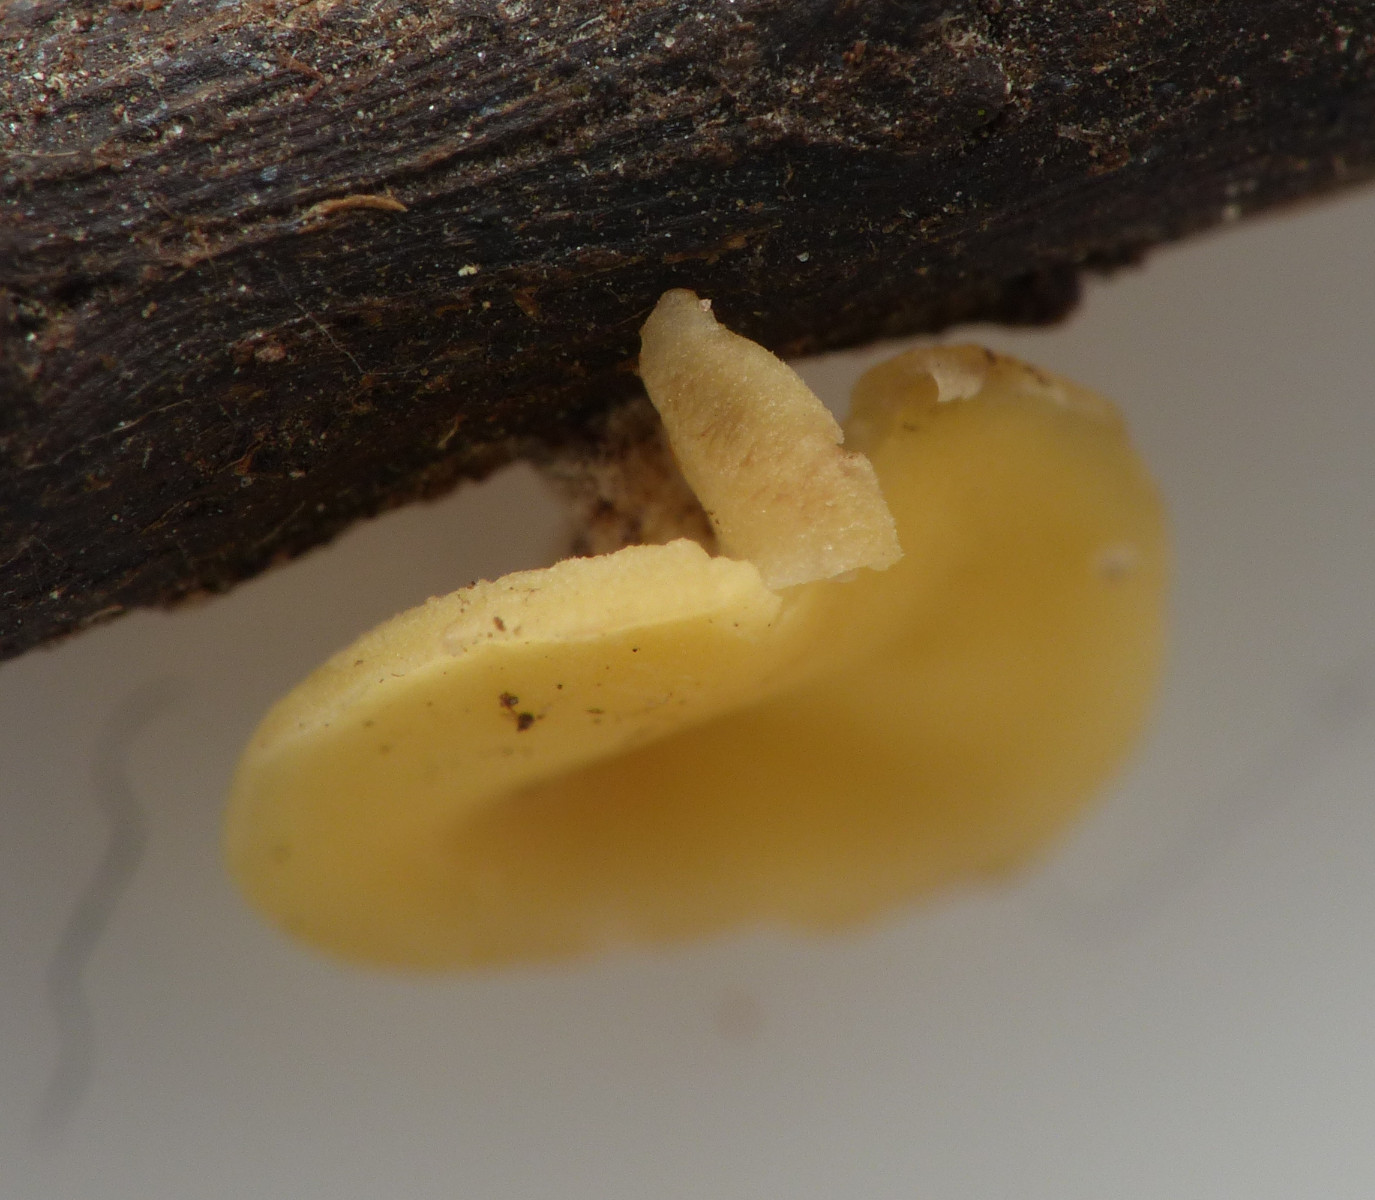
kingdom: Fungi
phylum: Ascomycota
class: Leotiomycetes
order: Helotiales
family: Helotiaceae
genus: Hymenoscyphus
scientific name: Hymenoscyphus serotinus
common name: krumsporet stilkskive
